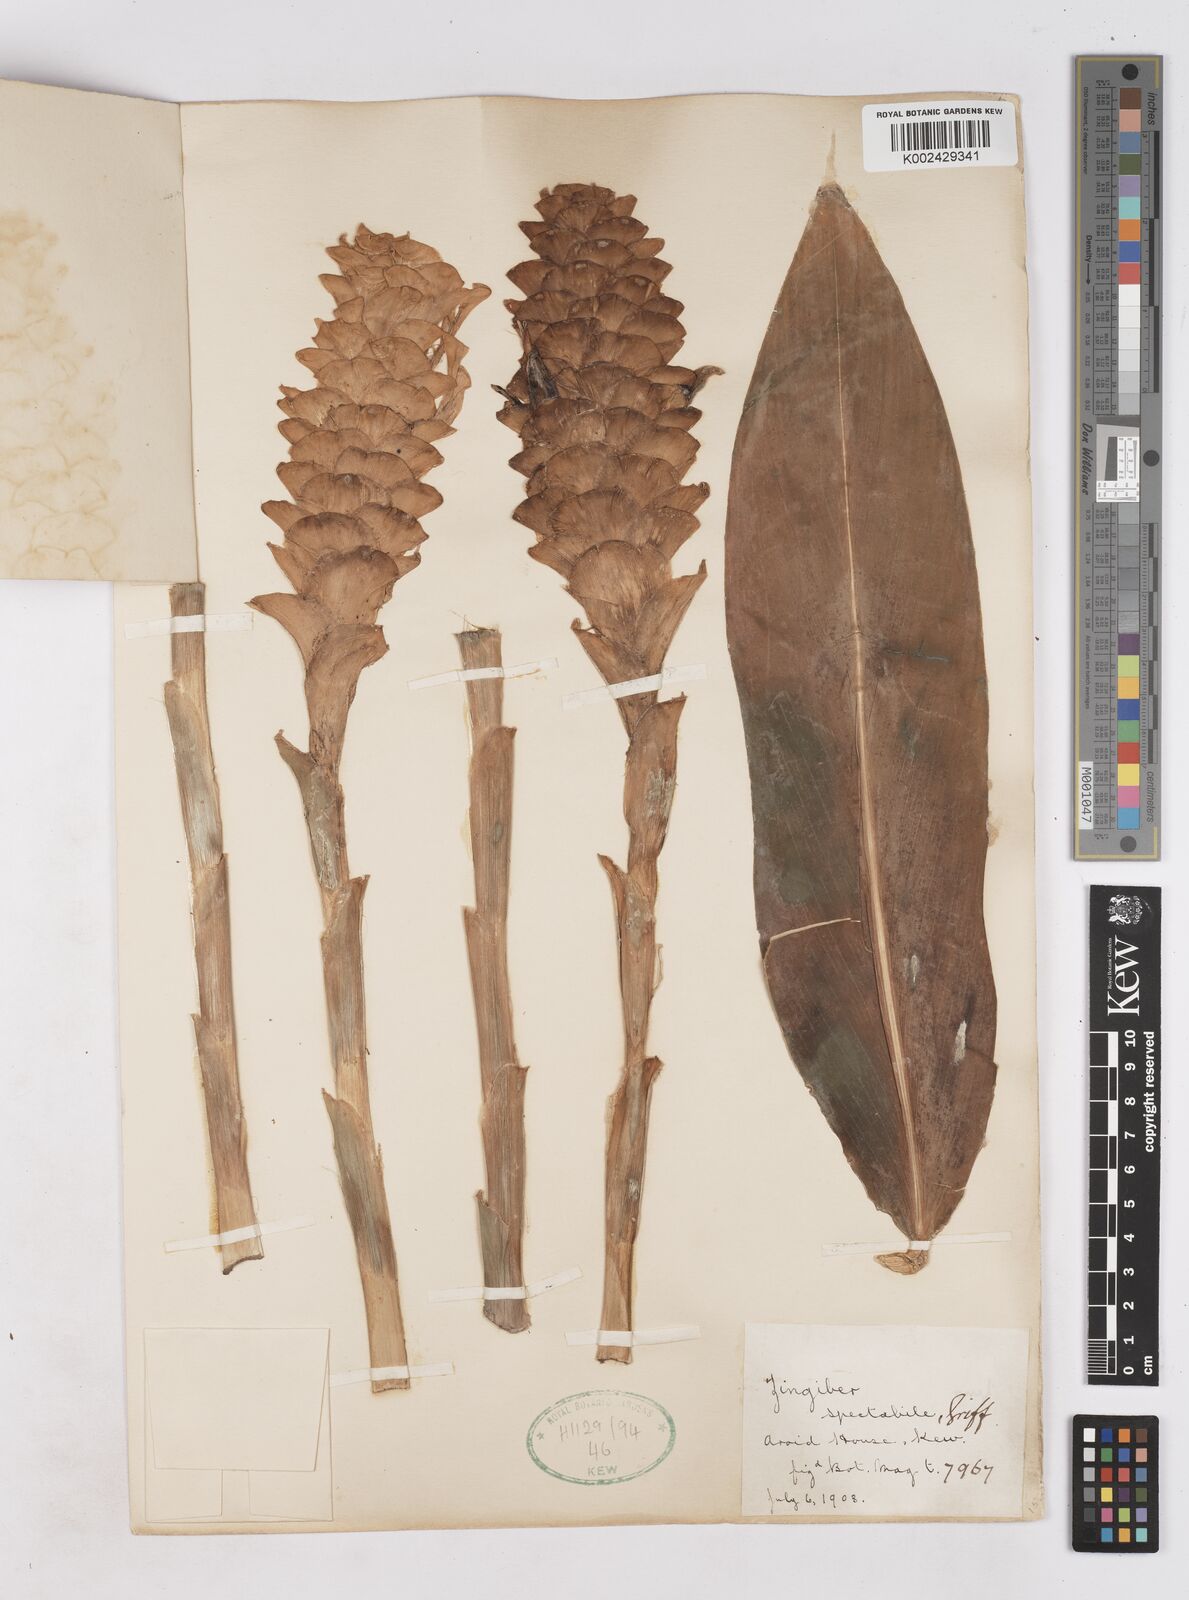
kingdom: Plantae
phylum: Tracheophyta
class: Liliopsida
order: Zingiberales
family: Zingiberaceae
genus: Zingiber
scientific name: Zingiber spectabile
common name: Beehive ginger
